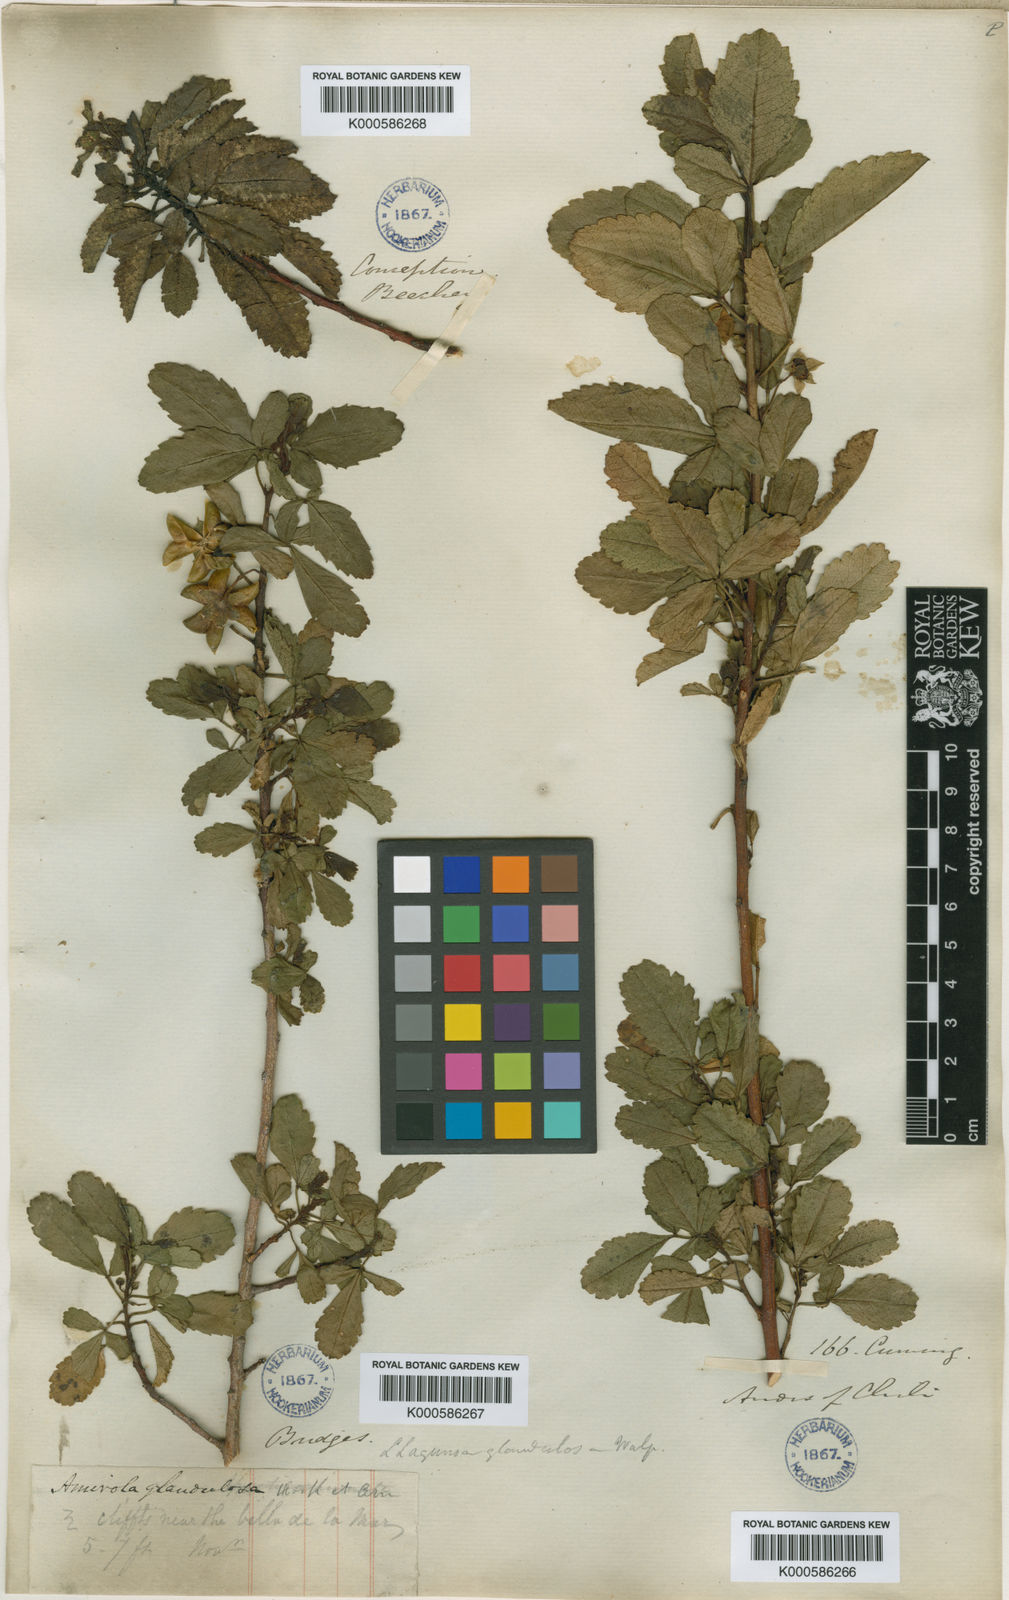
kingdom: Plantae
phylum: Tracheophyta
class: Magnoliopsida
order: Sapindales
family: Sapindaceae
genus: Llagunoa
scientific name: Llagunoa glandulosa
